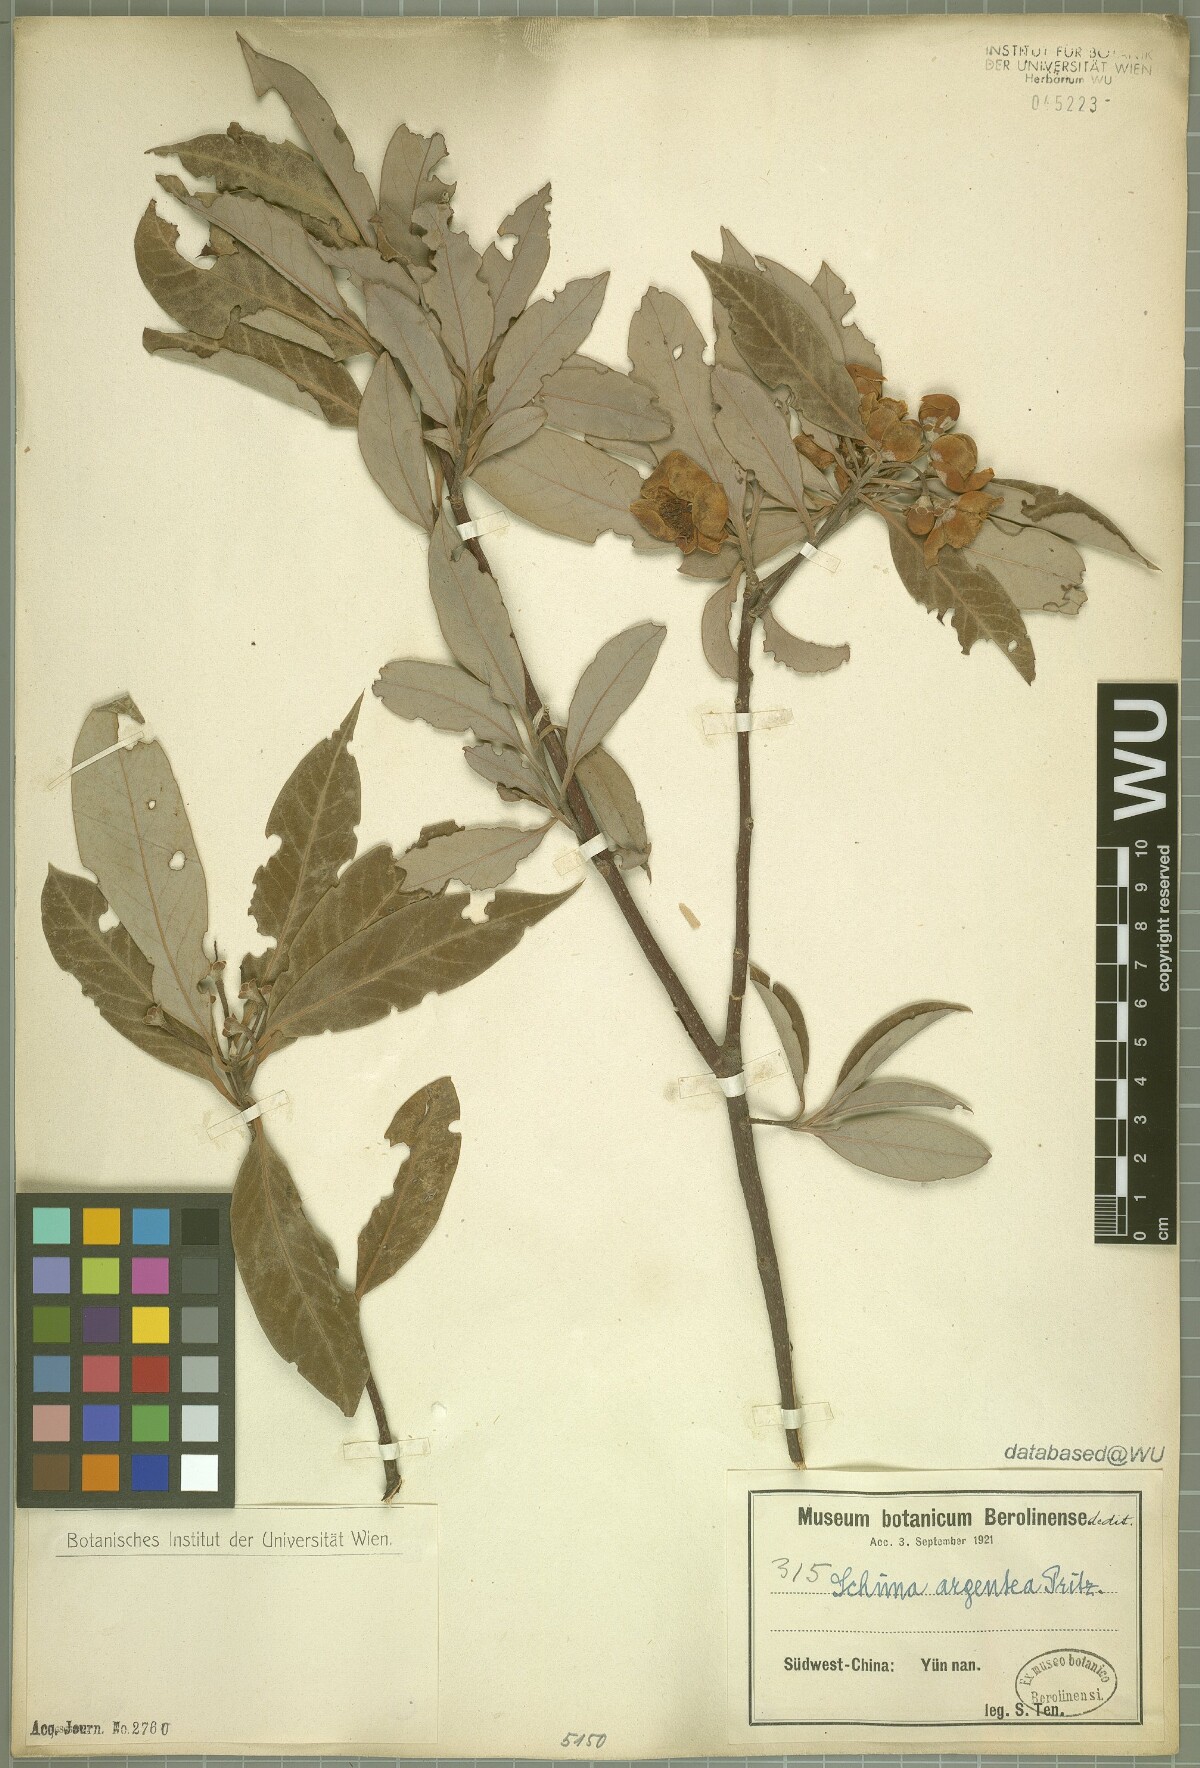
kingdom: Plantae
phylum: Tracheophyta
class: Magnoliopsida
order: Ericales
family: Theaceae
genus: Schima
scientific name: Schima argentea
